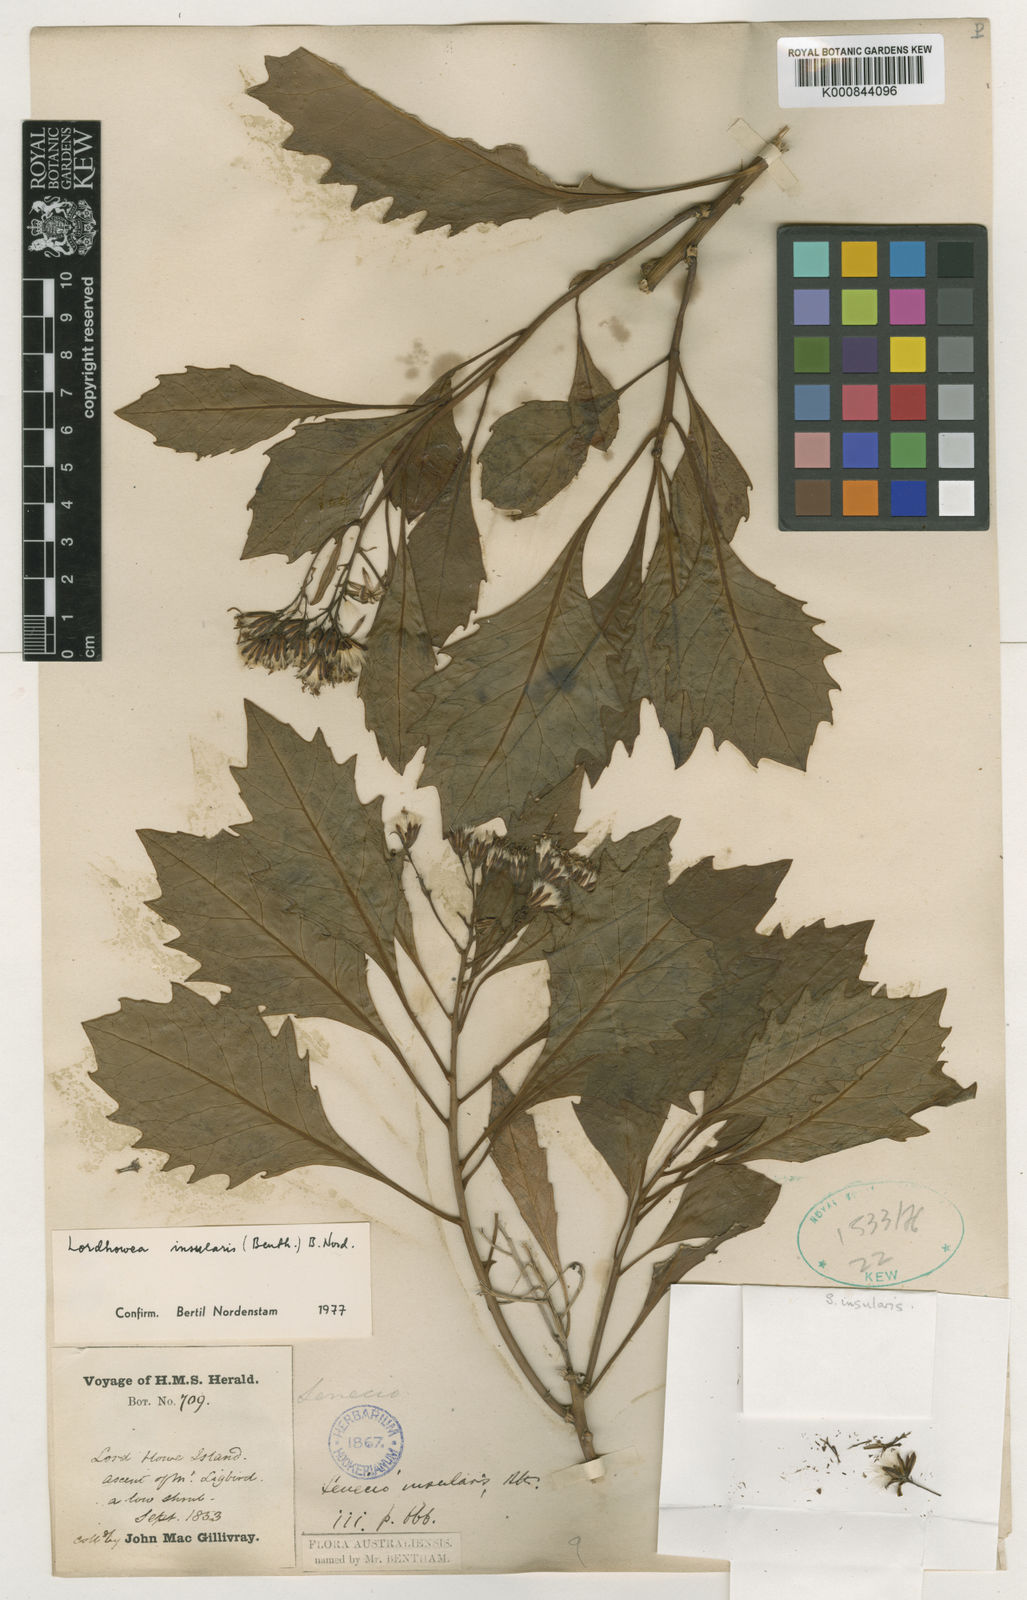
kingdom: Plantae
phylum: Tracheophyta
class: Magnoliopsida
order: Asterales
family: Asteraceae
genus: Lordhowea
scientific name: Lordhowea insularis
